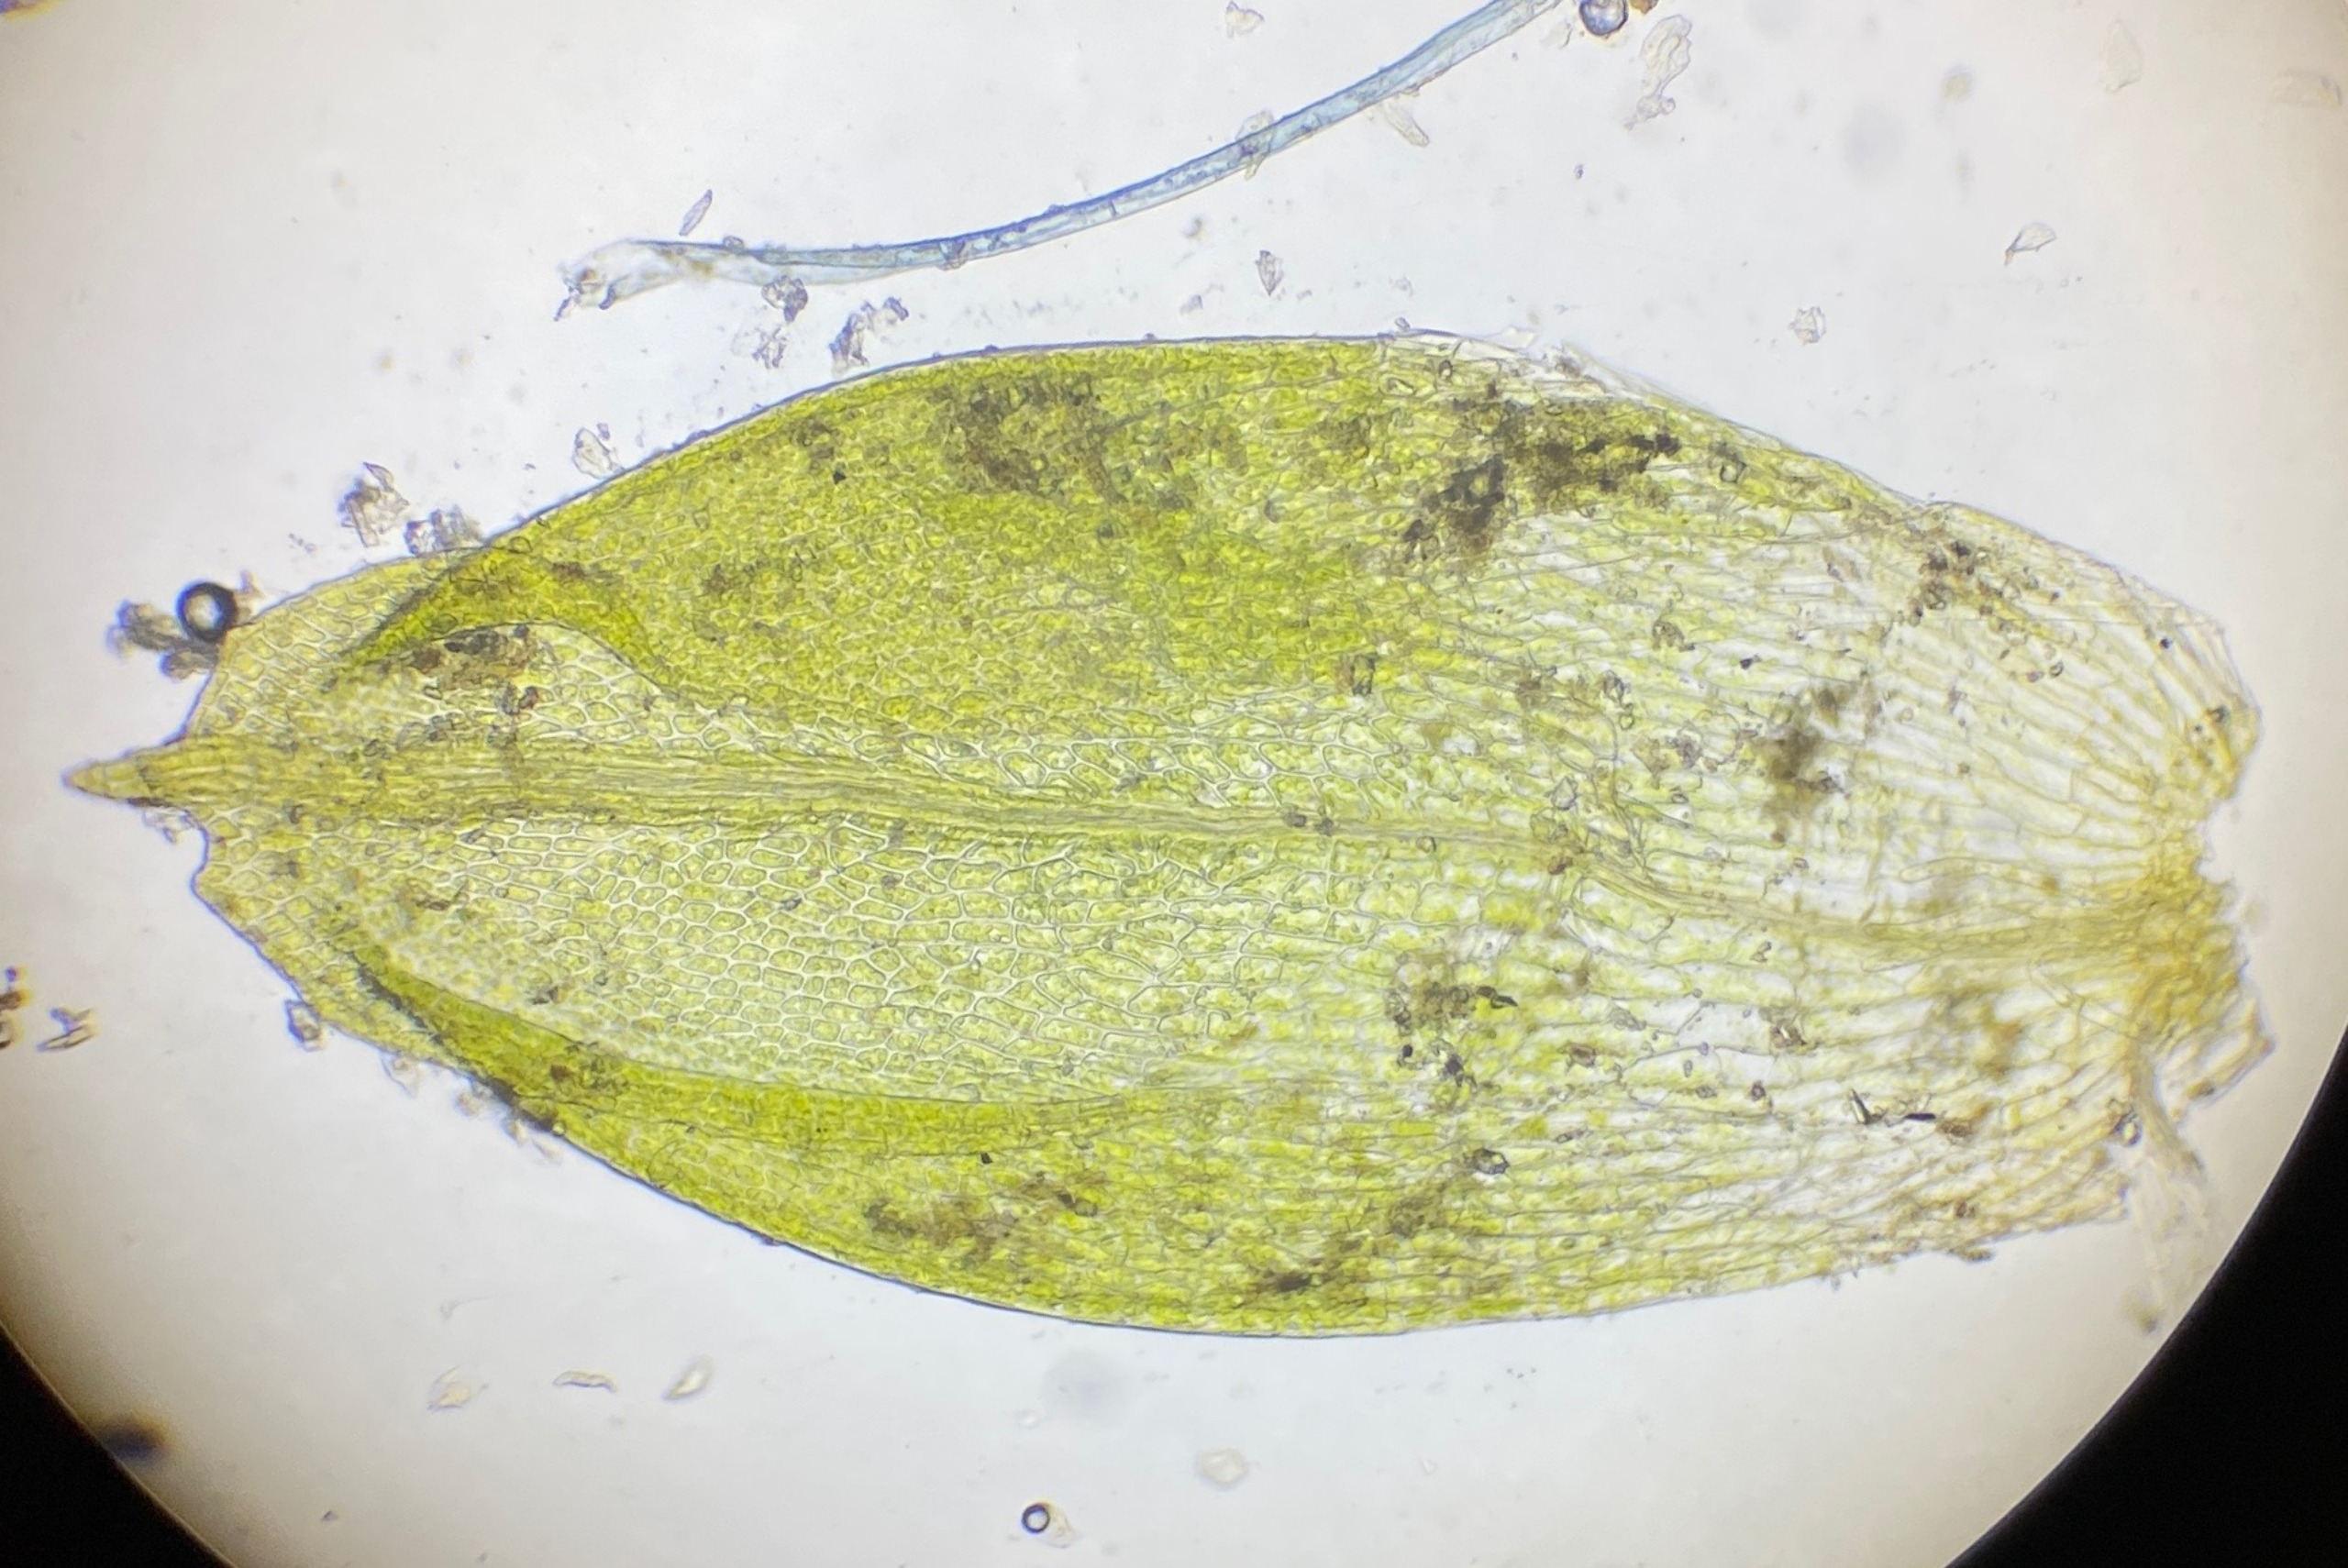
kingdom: Plantae
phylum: Bryophyta
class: Bryopsida
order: Pottiales
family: Pottiaceae
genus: Acaulon
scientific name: Acaulon muticum
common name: Siddende ægmos
